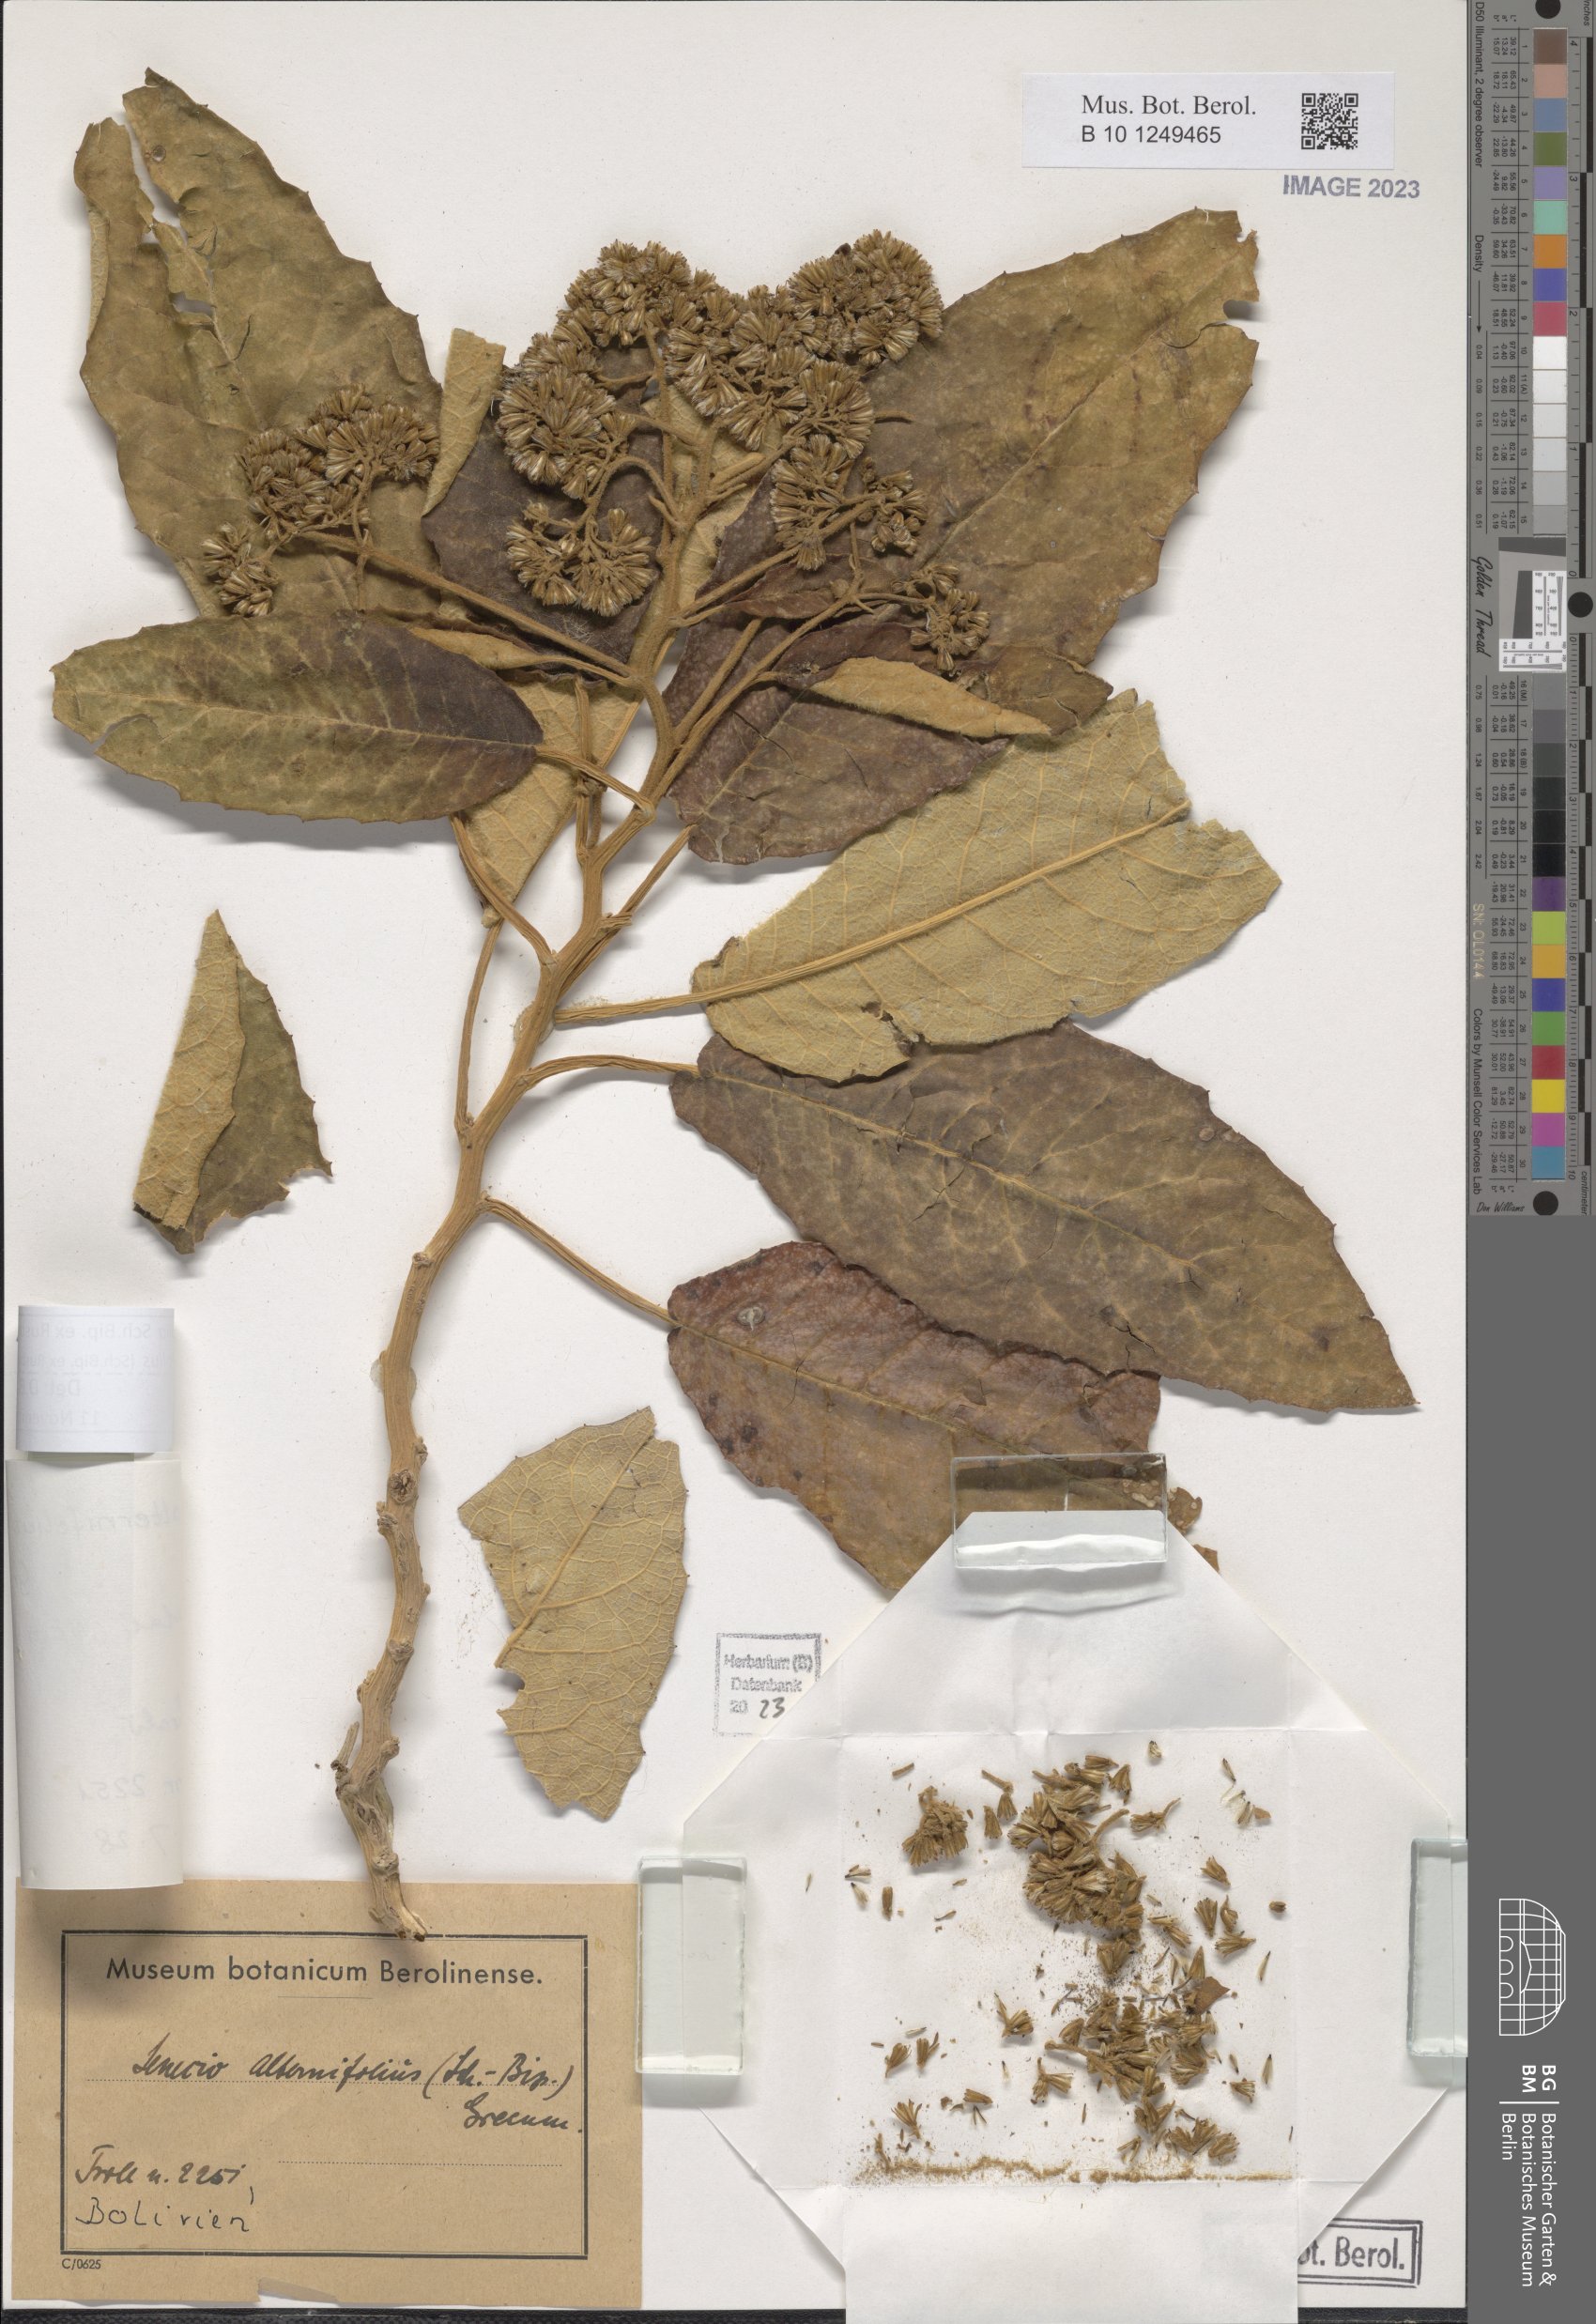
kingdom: Plantae
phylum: Tracheophyta
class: Magnoliopsida
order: Asterales
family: Asteraceae
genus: Gynoxys
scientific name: Gynoxys alternifolia
